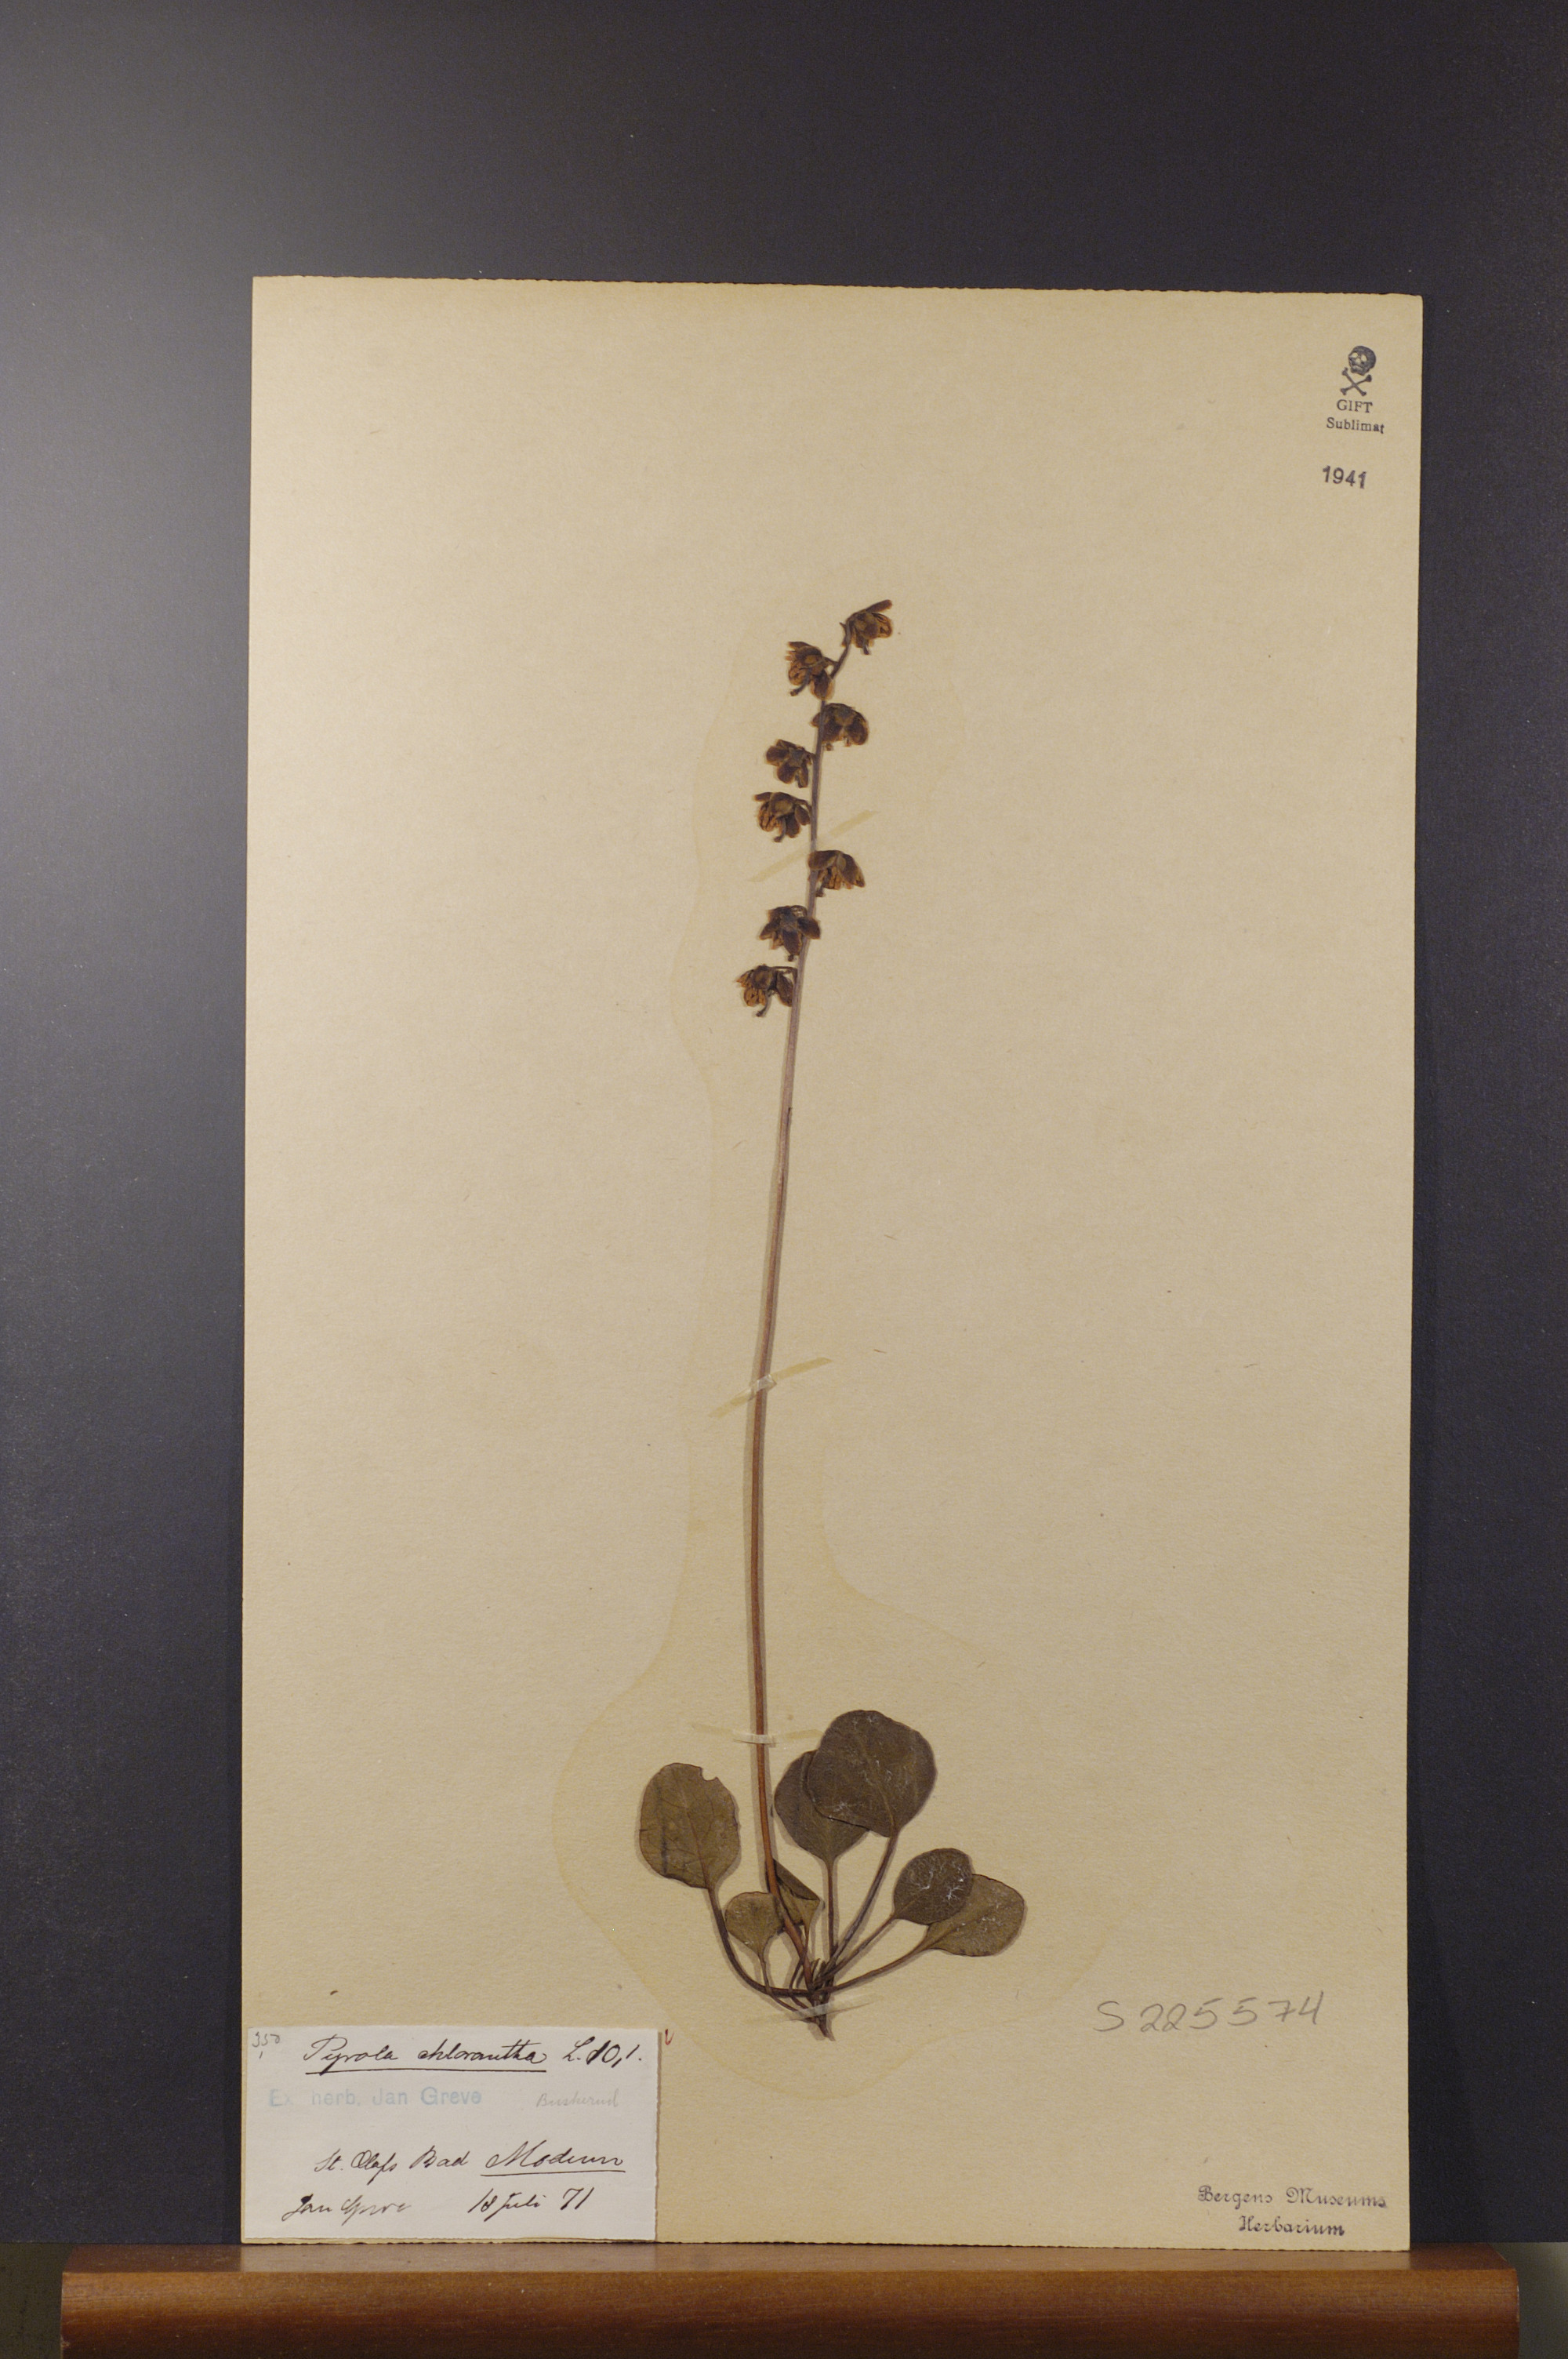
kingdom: Plantae
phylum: Tracheophyta
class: Magnoliopsida
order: Ericales
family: Ericaceae
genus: Pyrola
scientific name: Pyrola chlorantha
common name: Green wintergreen
